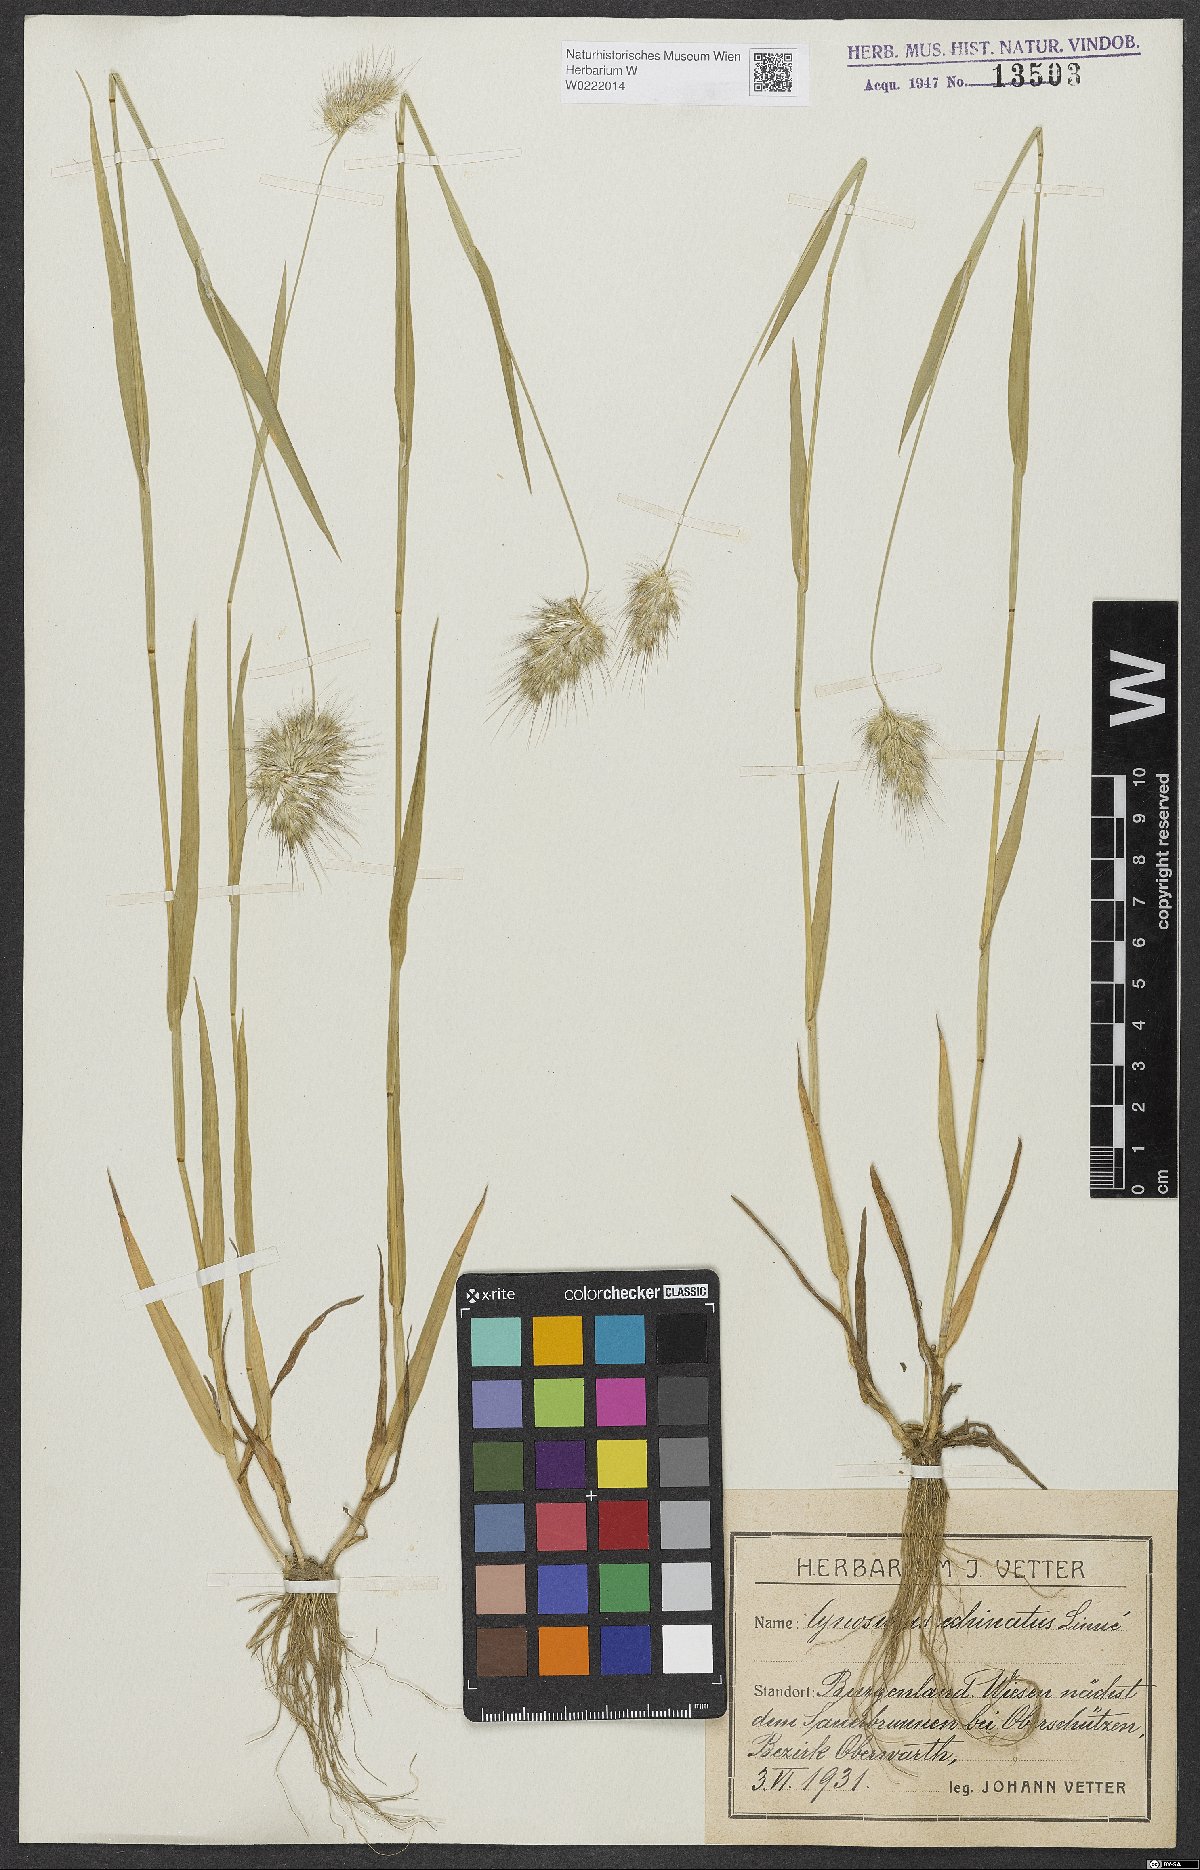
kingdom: Plantae
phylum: Tracheophyta
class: Liliopsida
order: Poales
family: Poaceae
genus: Cynosurus
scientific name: Cynosurus echinatus
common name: Rough dog's-tail
